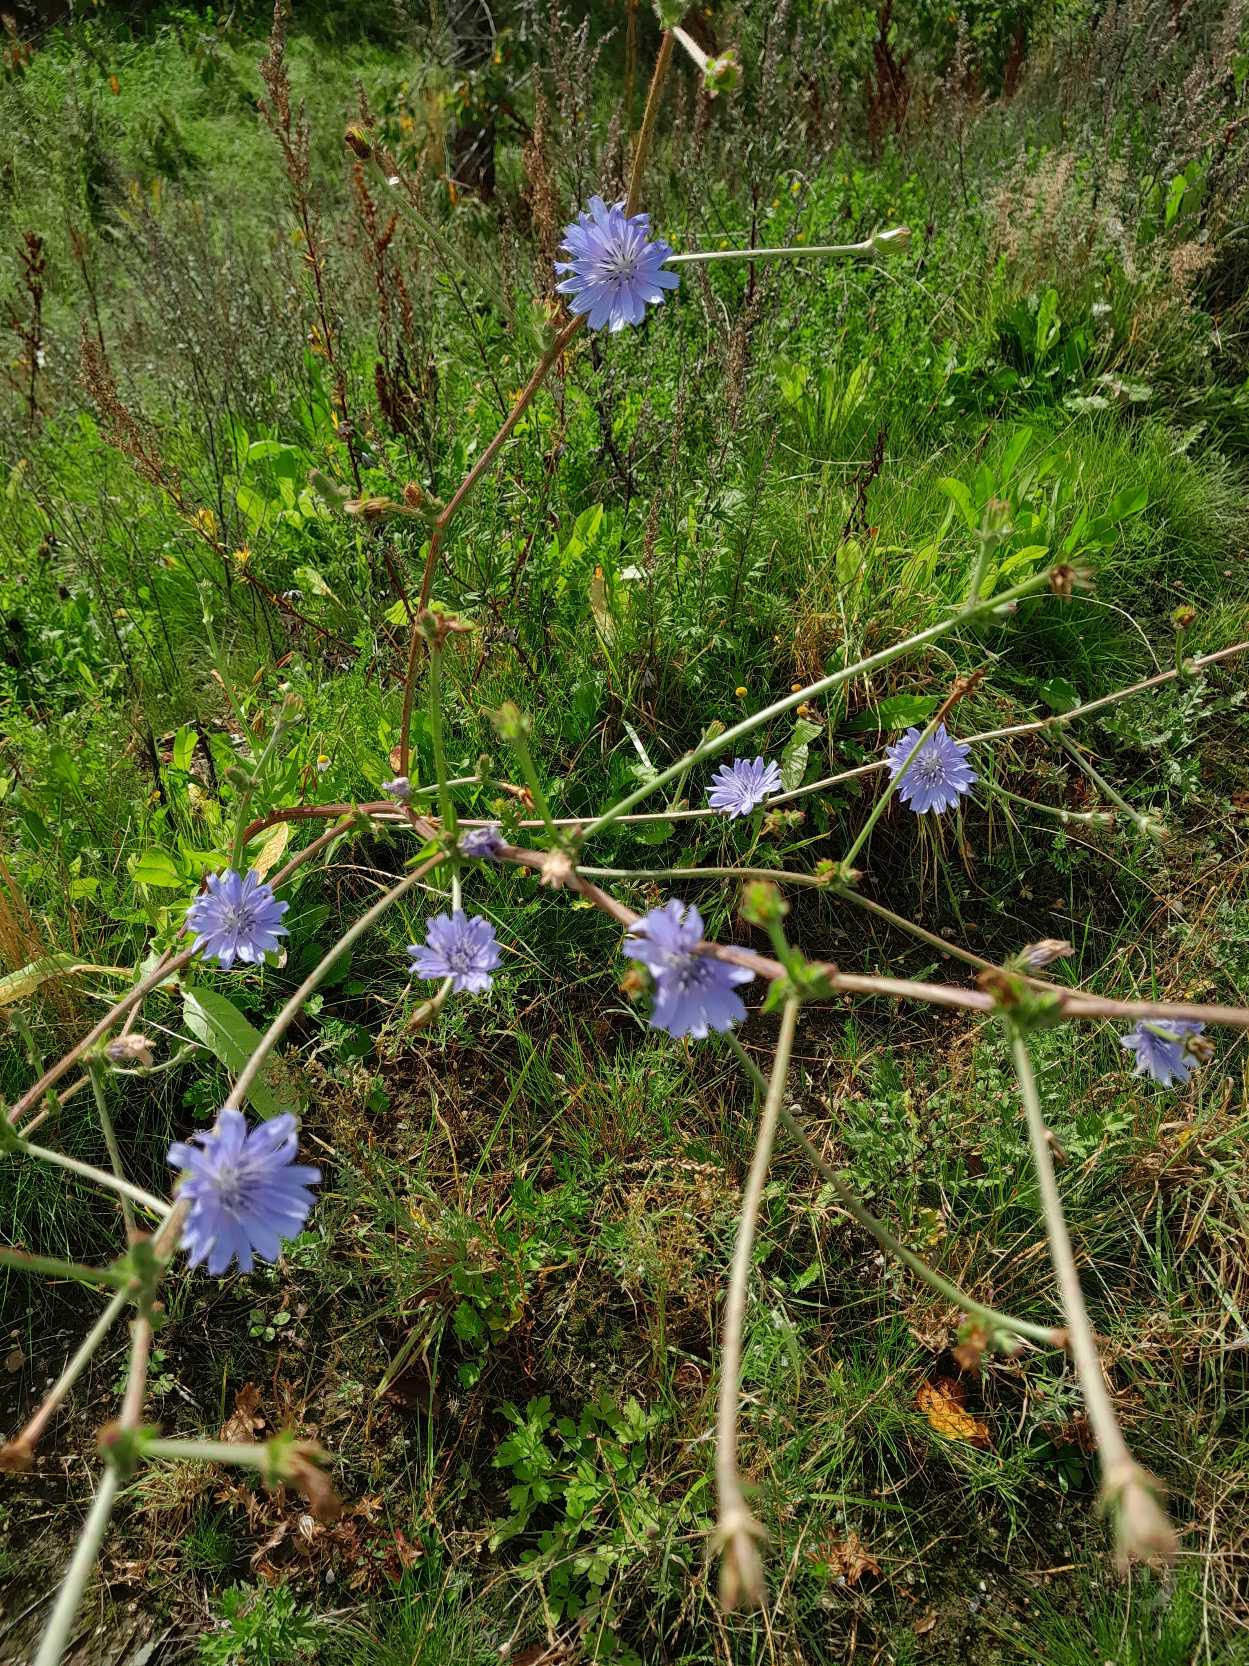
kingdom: Plantae
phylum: Tracheophyta
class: Magnoliopsida
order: Asterales
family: Asteraceae
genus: Cichorium
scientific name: Cichorium intybus
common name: Cikorie
